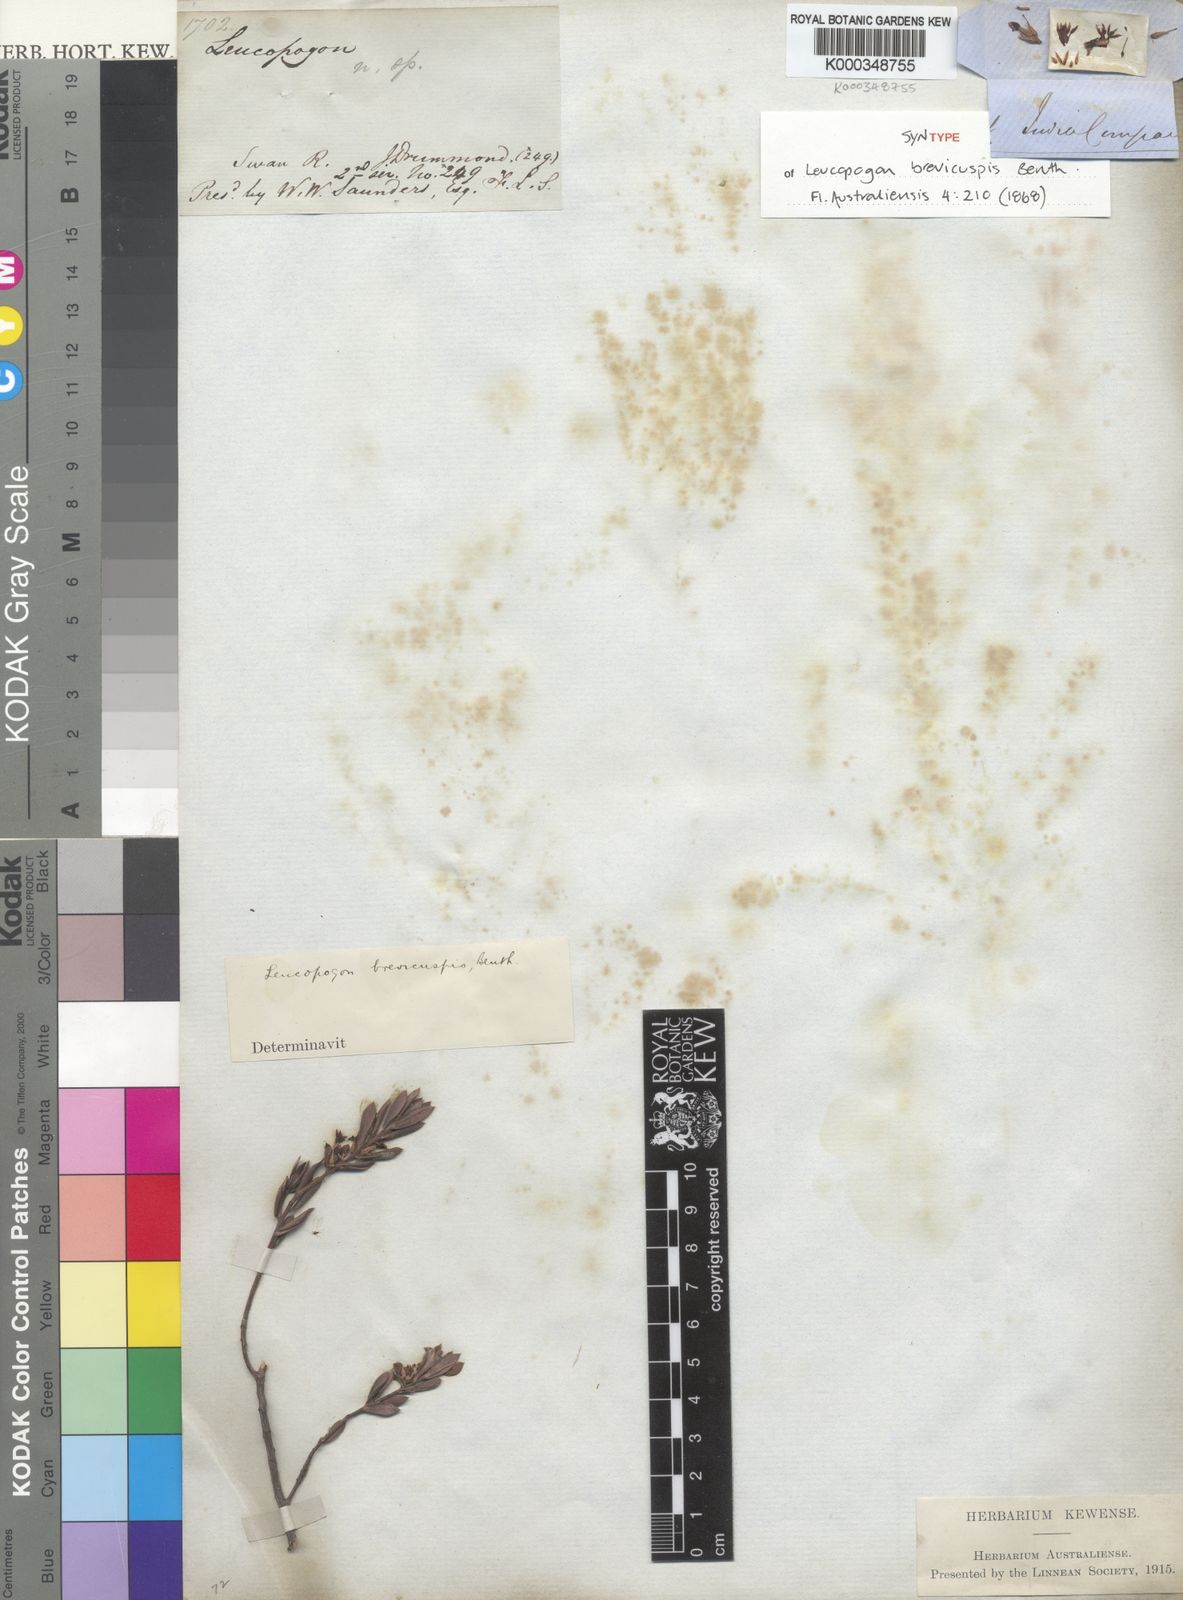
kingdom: Plantae
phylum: Tracheophyta
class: Magnoliopsida
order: Ericales
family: Ericaceae
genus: Styphelia
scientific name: Styphelia brevicuspis
